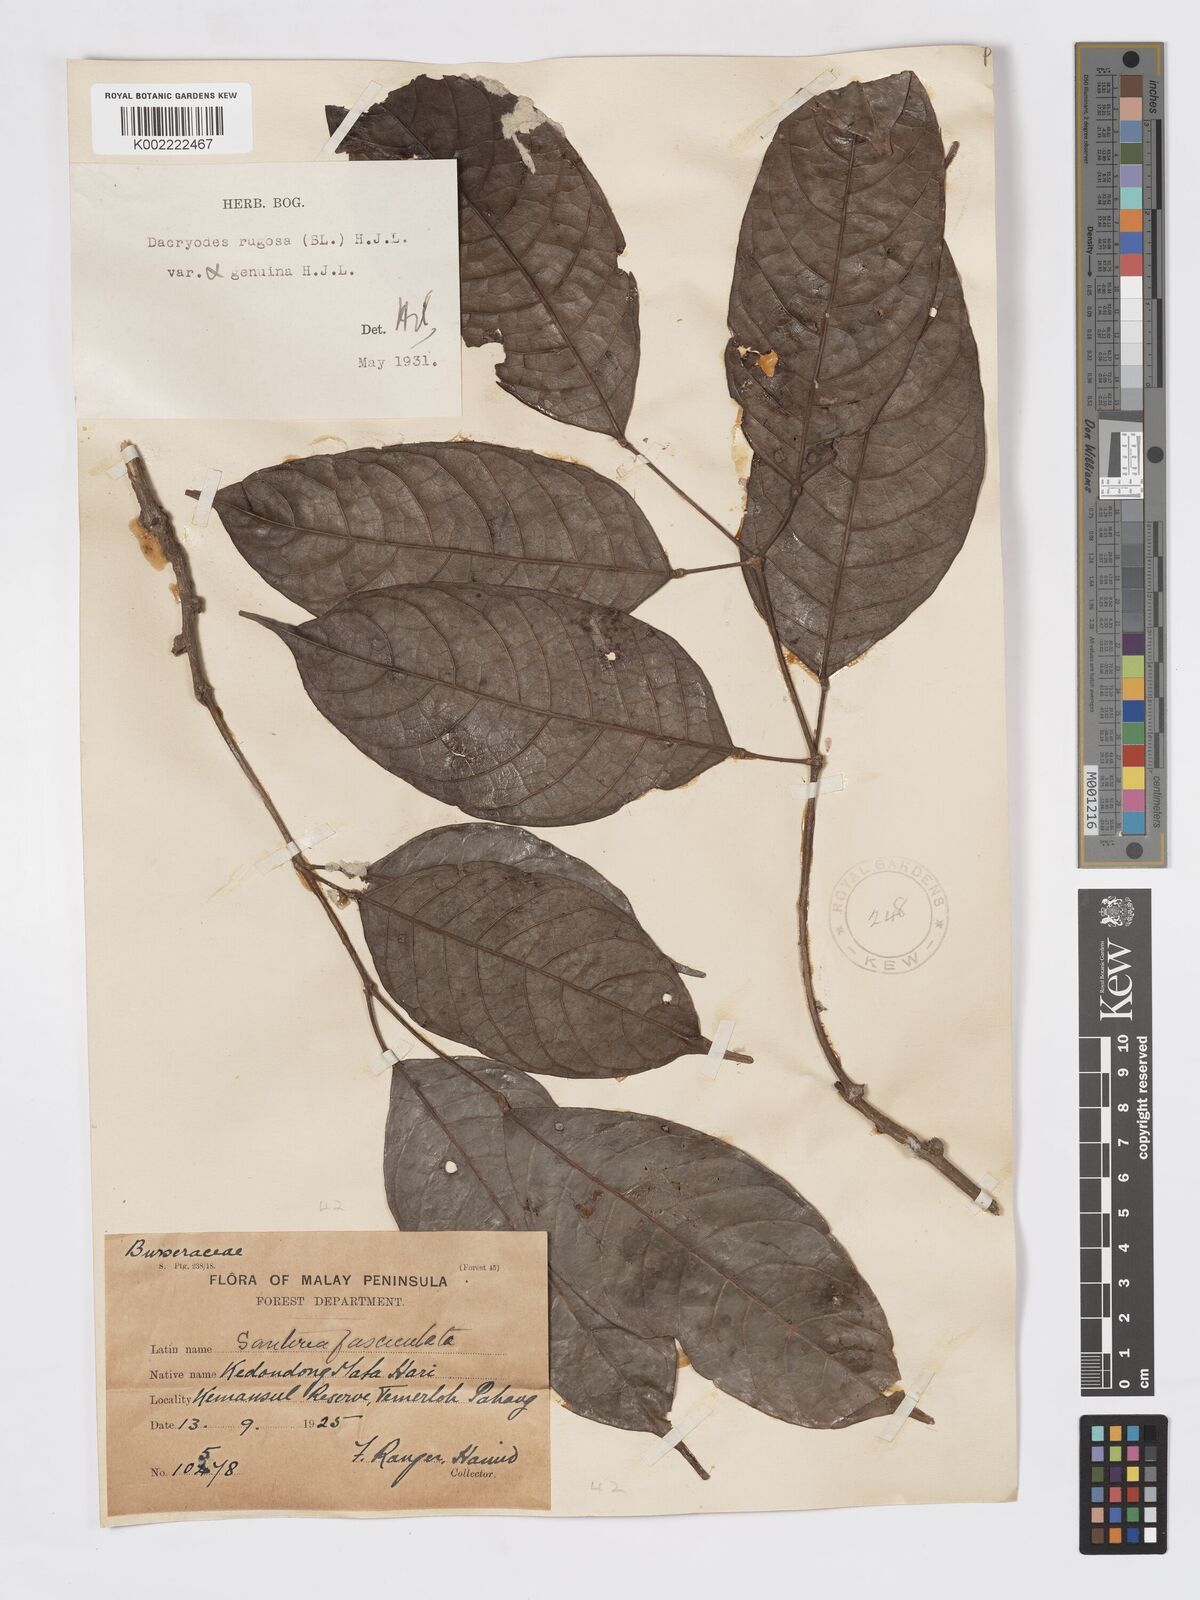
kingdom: Plantae
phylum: Tracheophyta
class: Magnoliopsida
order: Sapindales
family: Burseraceae
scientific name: Burseraceae
